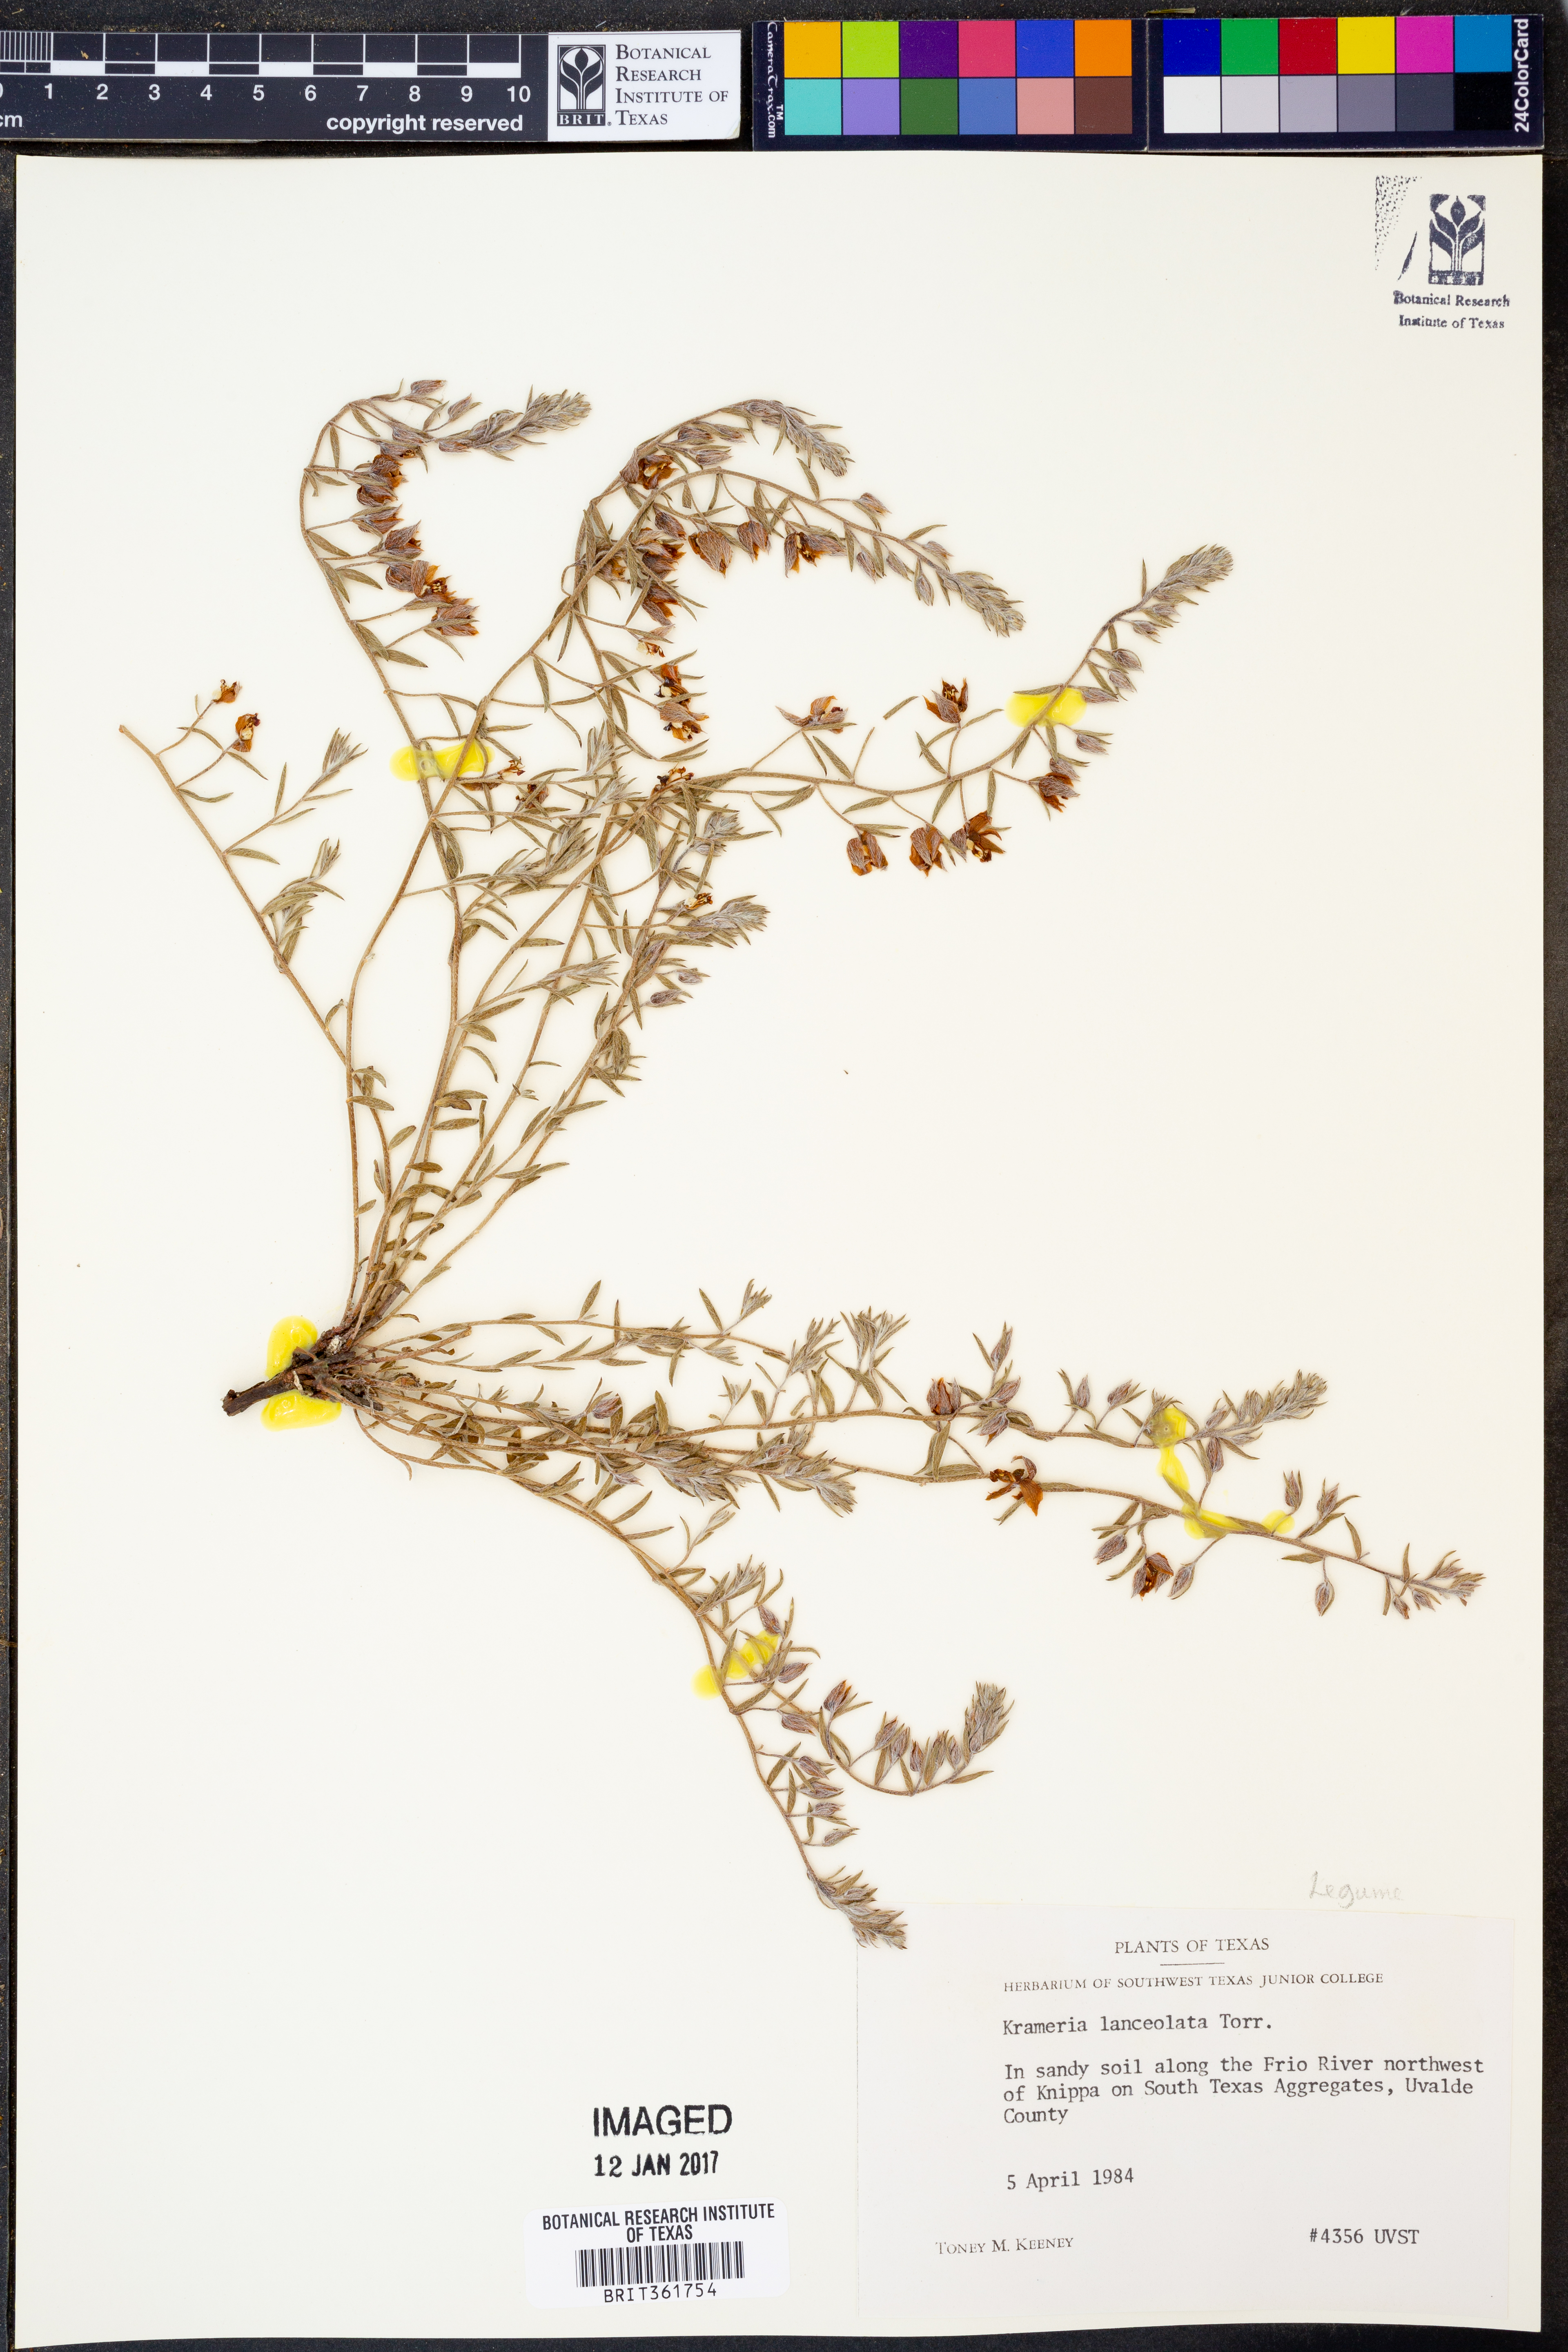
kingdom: Plantae
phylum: Tracheophyta
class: Magnoliopsida
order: Zygophyllales
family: Krameriaceae
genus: Krameria
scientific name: Krameria lanceolata
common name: Ratany
